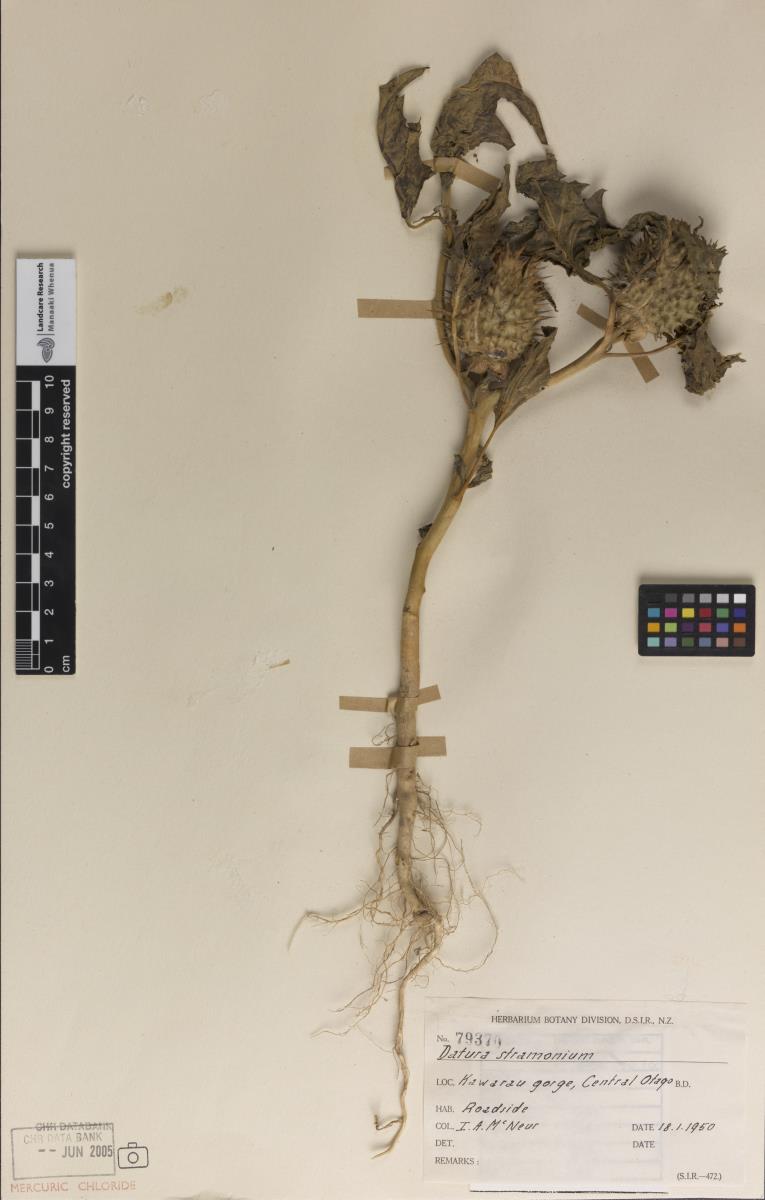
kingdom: Plantae
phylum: Tracheophyta
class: Magnoliopsida
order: Solanales
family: Solanaceae
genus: Datura
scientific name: Datura stramonium
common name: Thorn-apple
